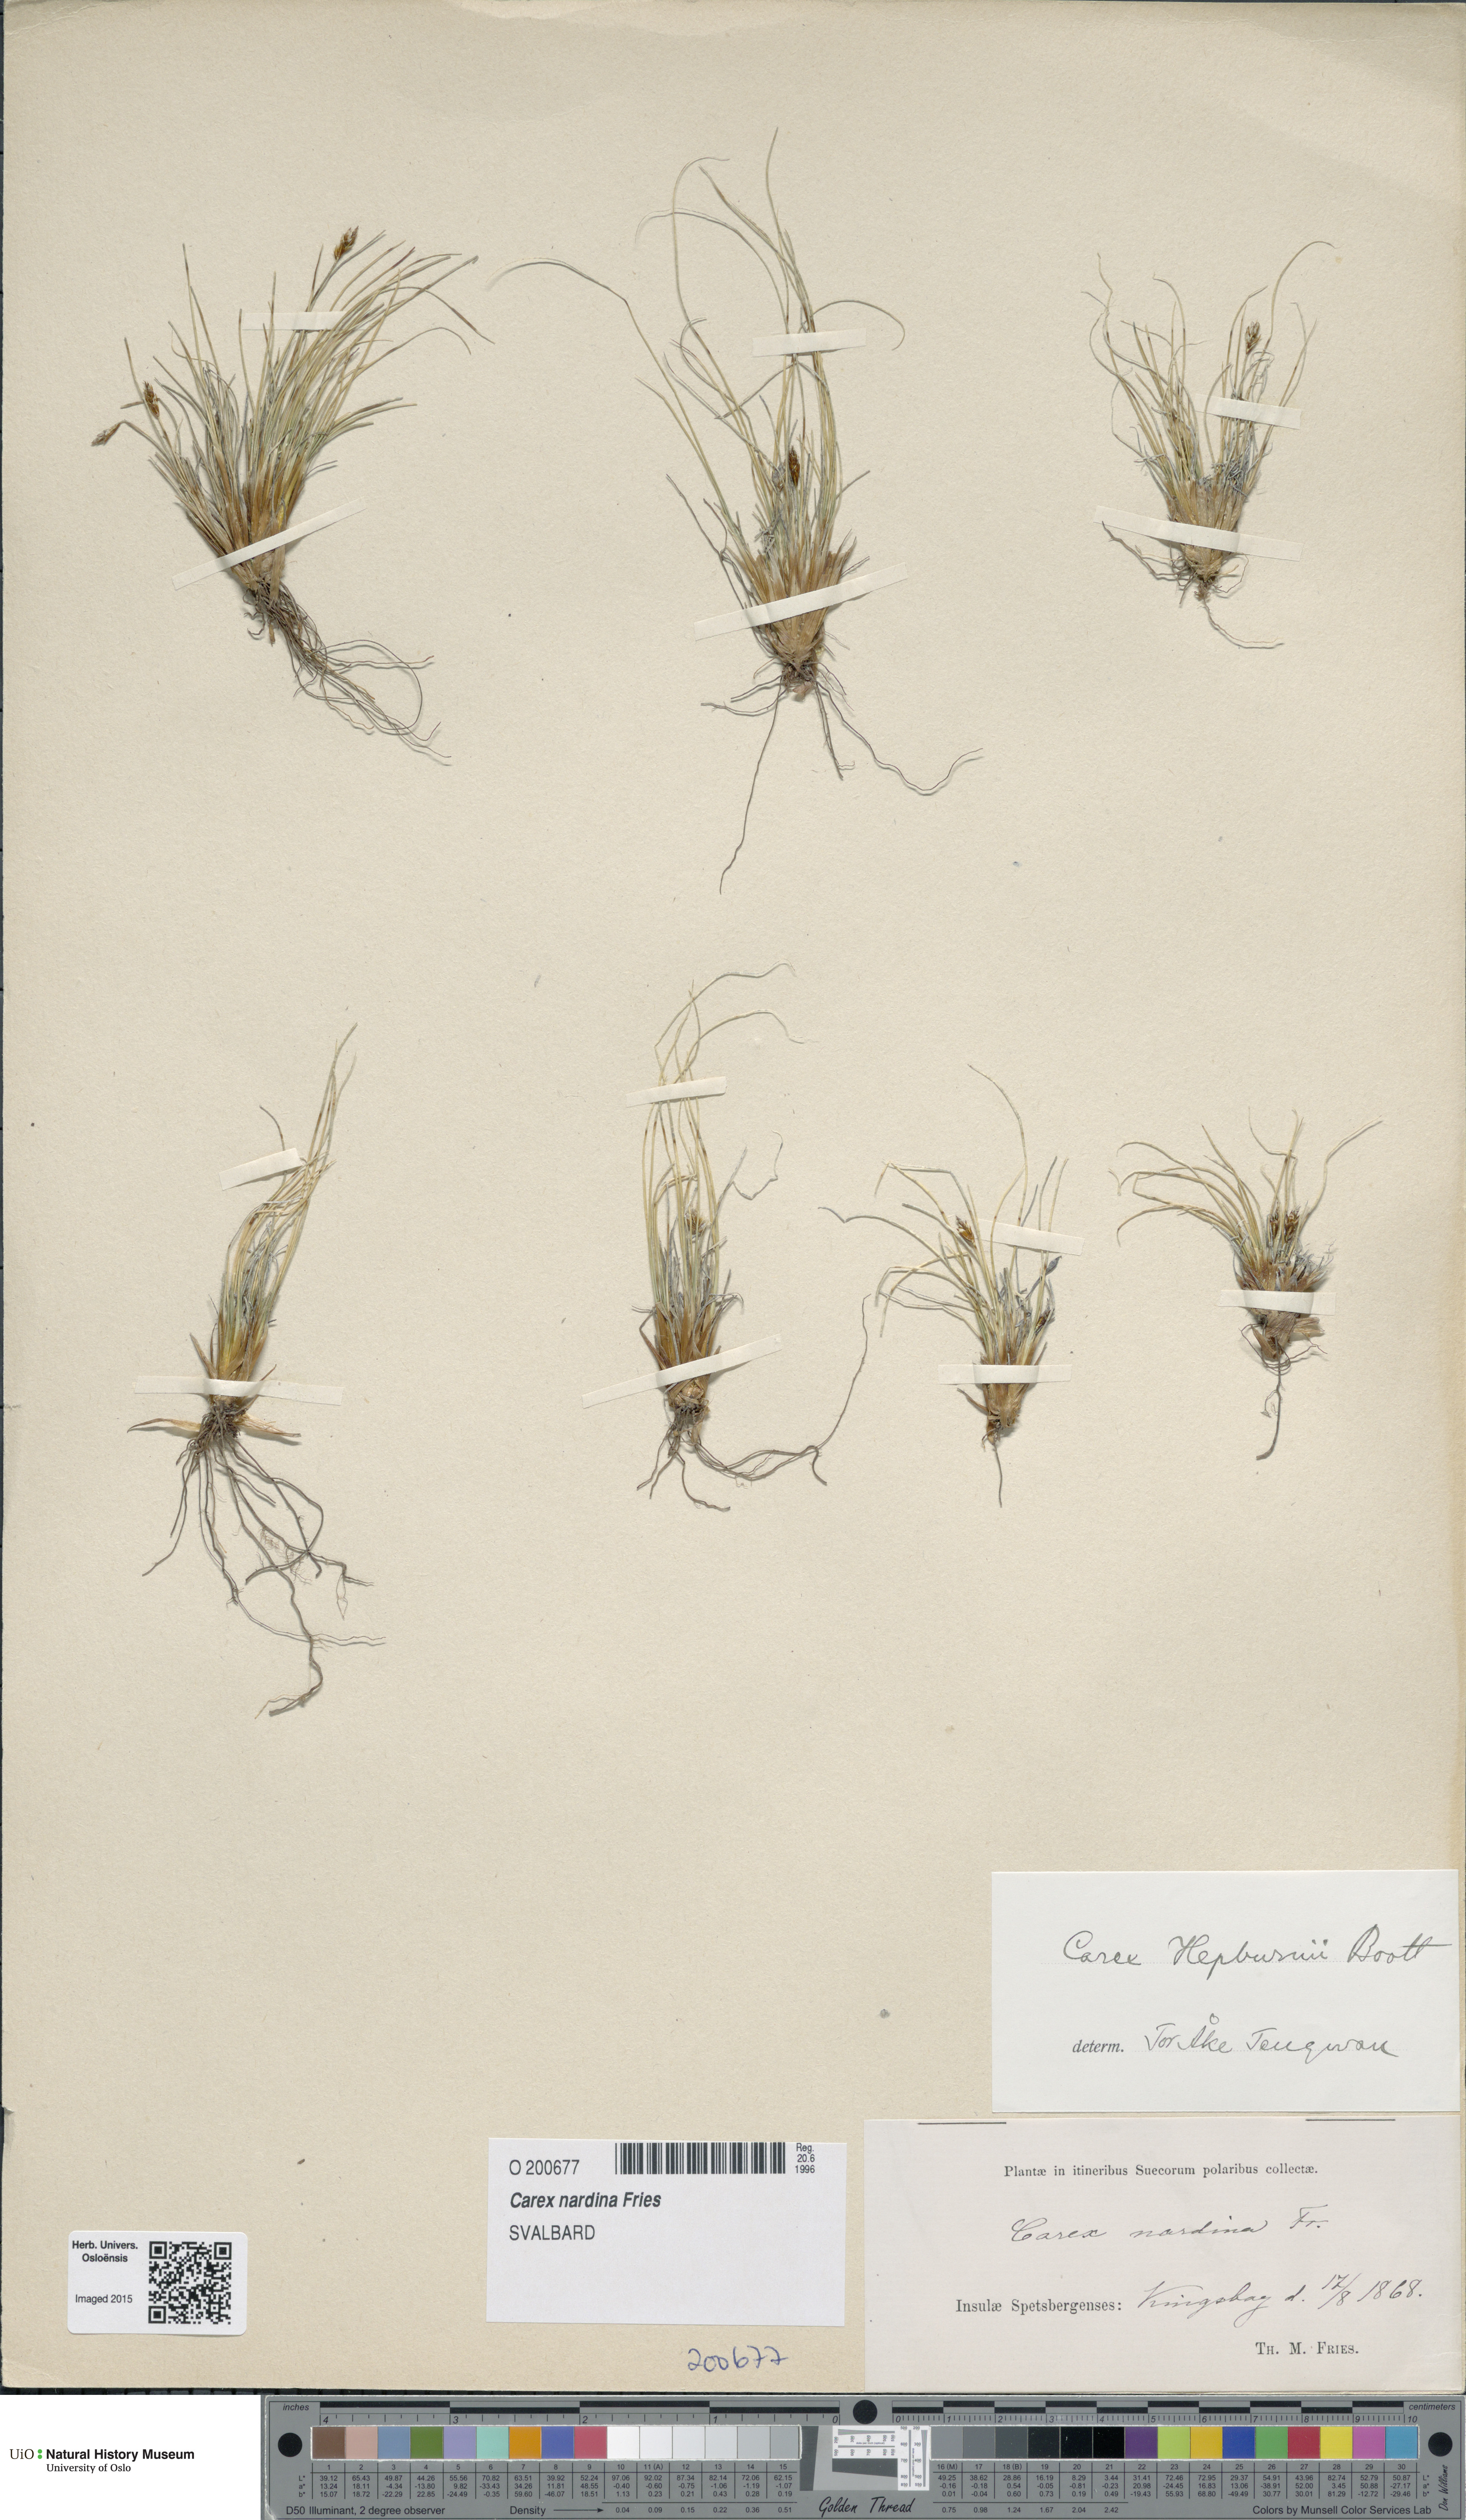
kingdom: Plantae
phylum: Tracheophyta
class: Liliopsida
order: Poales
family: Cyperaceae
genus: Carex
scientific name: Carex nardina
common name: Nard sedge
